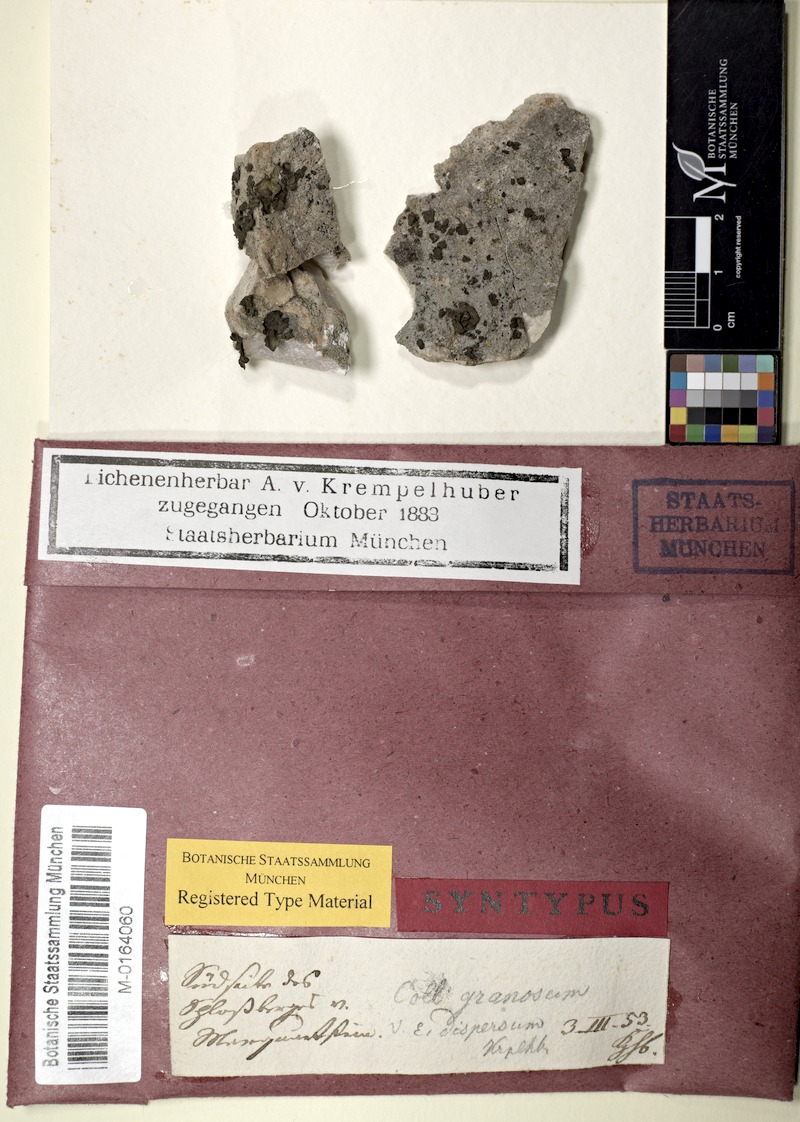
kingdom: Fungi
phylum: Ascomycota
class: Lecanoromycetes
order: Peltigerales
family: Collemataceae
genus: Lathagrium
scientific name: Lathagrium fuscovirens
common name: Crumpled rock tarpaper lichen
